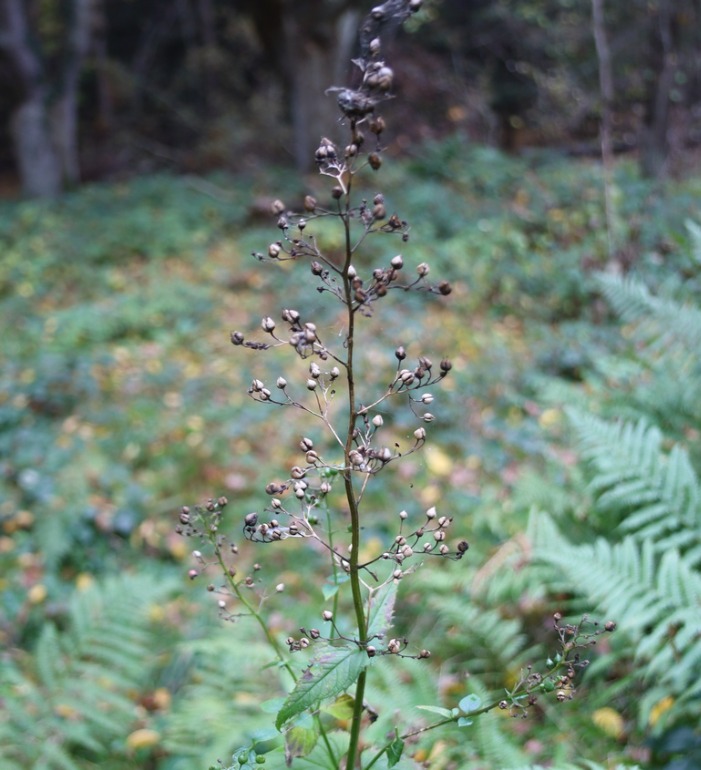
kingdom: Plantae
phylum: Tracheophyta
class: Magnoliopsida
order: Lamiales
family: Scrophulariaceae
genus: Scrophularia
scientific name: Scrophularia nodosa
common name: Knoldet brunrod
